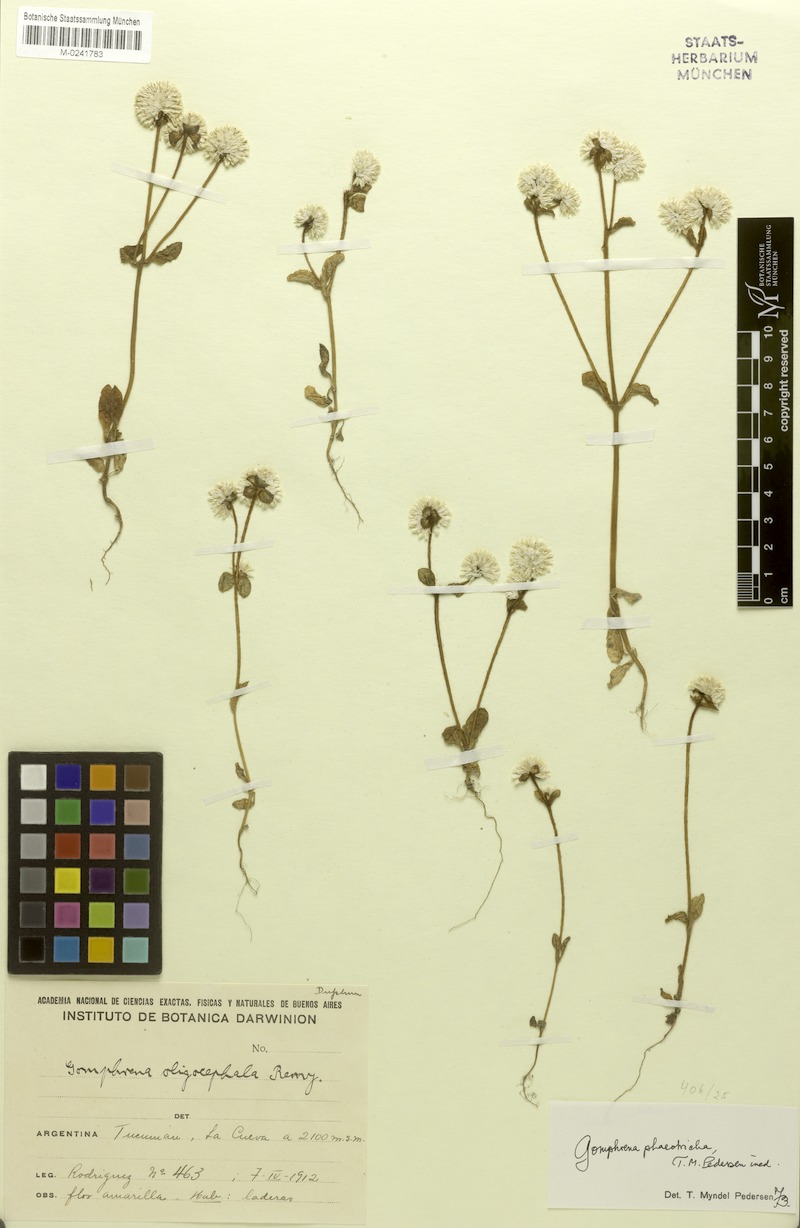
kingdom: Plantae
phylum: Tracheophyta
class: Magnoliopsida
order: Caryophyllales
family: Amaranthaceae
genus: Gomphrena
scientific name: Gomphrena phaeotricha
